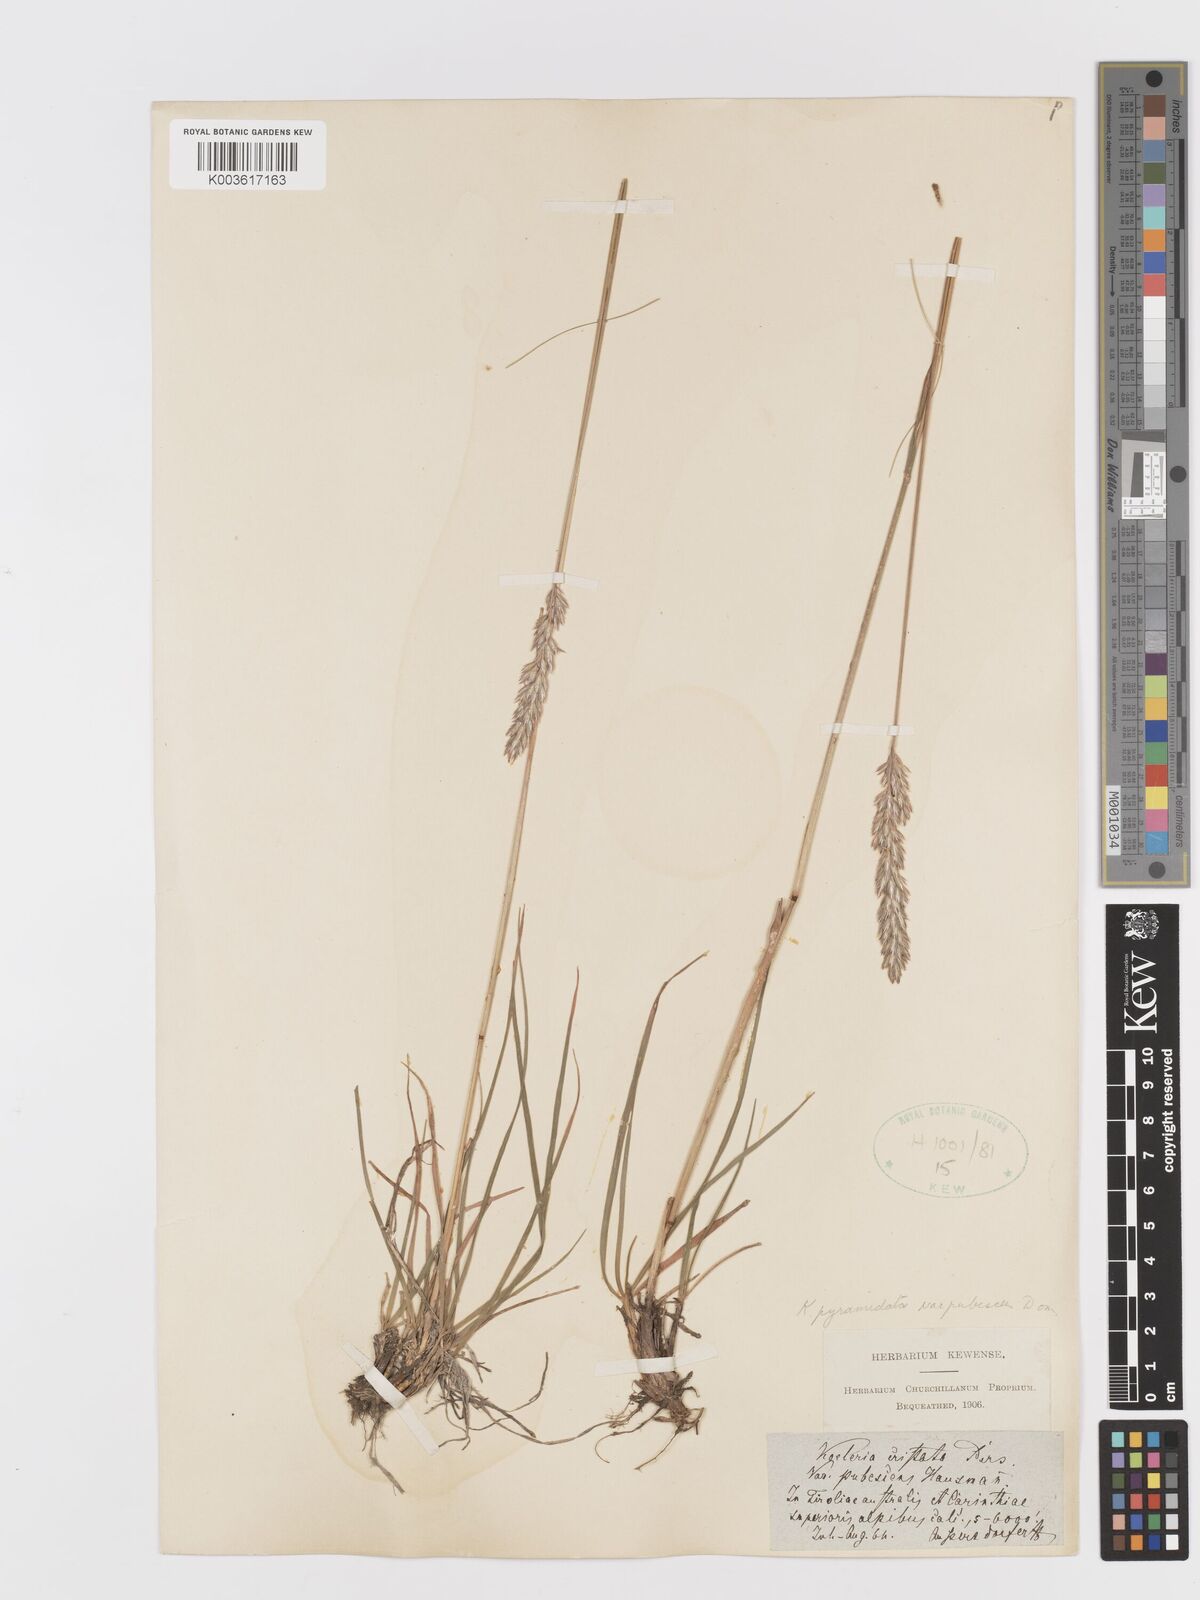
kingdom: Plantae
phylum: Tracheophyta
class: Liliopsida
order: Poales
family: Poaceae
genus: Koeleria
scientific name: Koeleria macrantha
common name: Crested hair-grass
